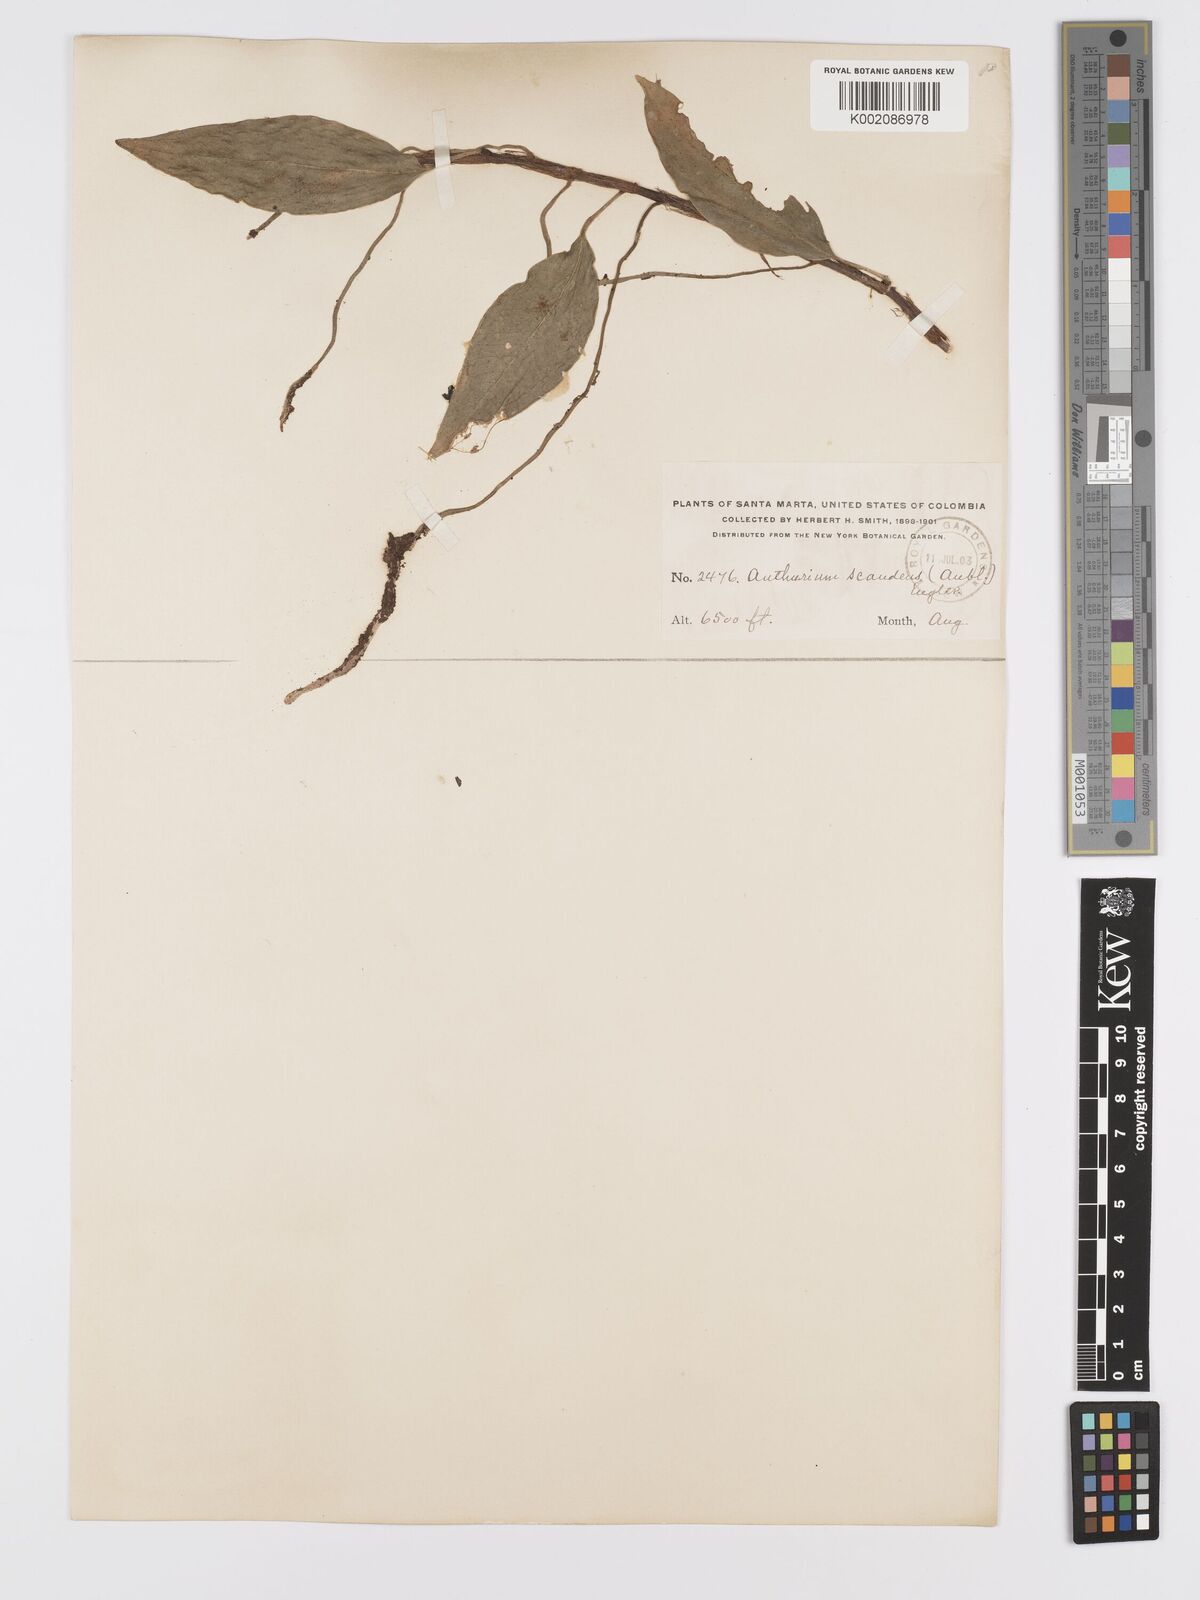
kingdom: Plantae
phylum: Tracheophyta
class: Liliopsida
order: Alismatales
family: Araceae
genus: Anthurium
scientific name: Anthurium scandens
